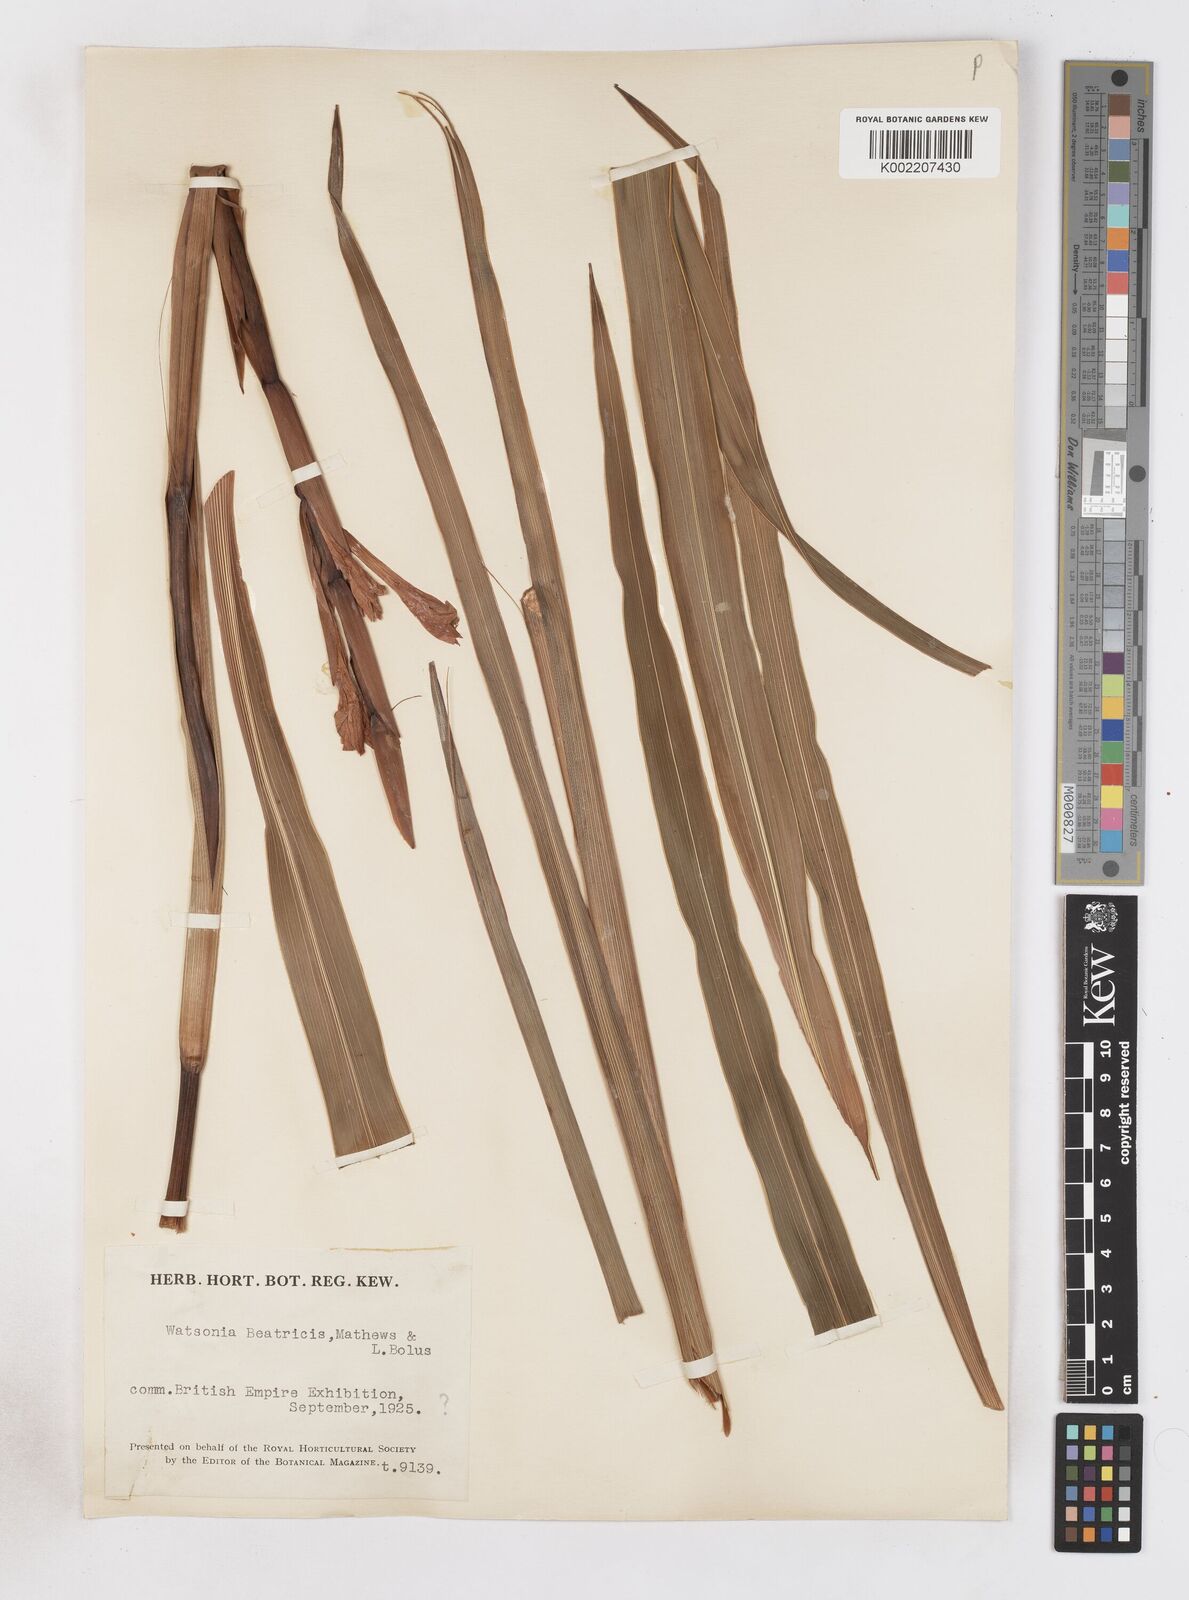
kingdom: Plantae
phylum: Tracheophyta
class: Liliopsida
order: Asparagales
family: Iridaceae
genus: Watsonia
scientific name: Watsonia pillansii
